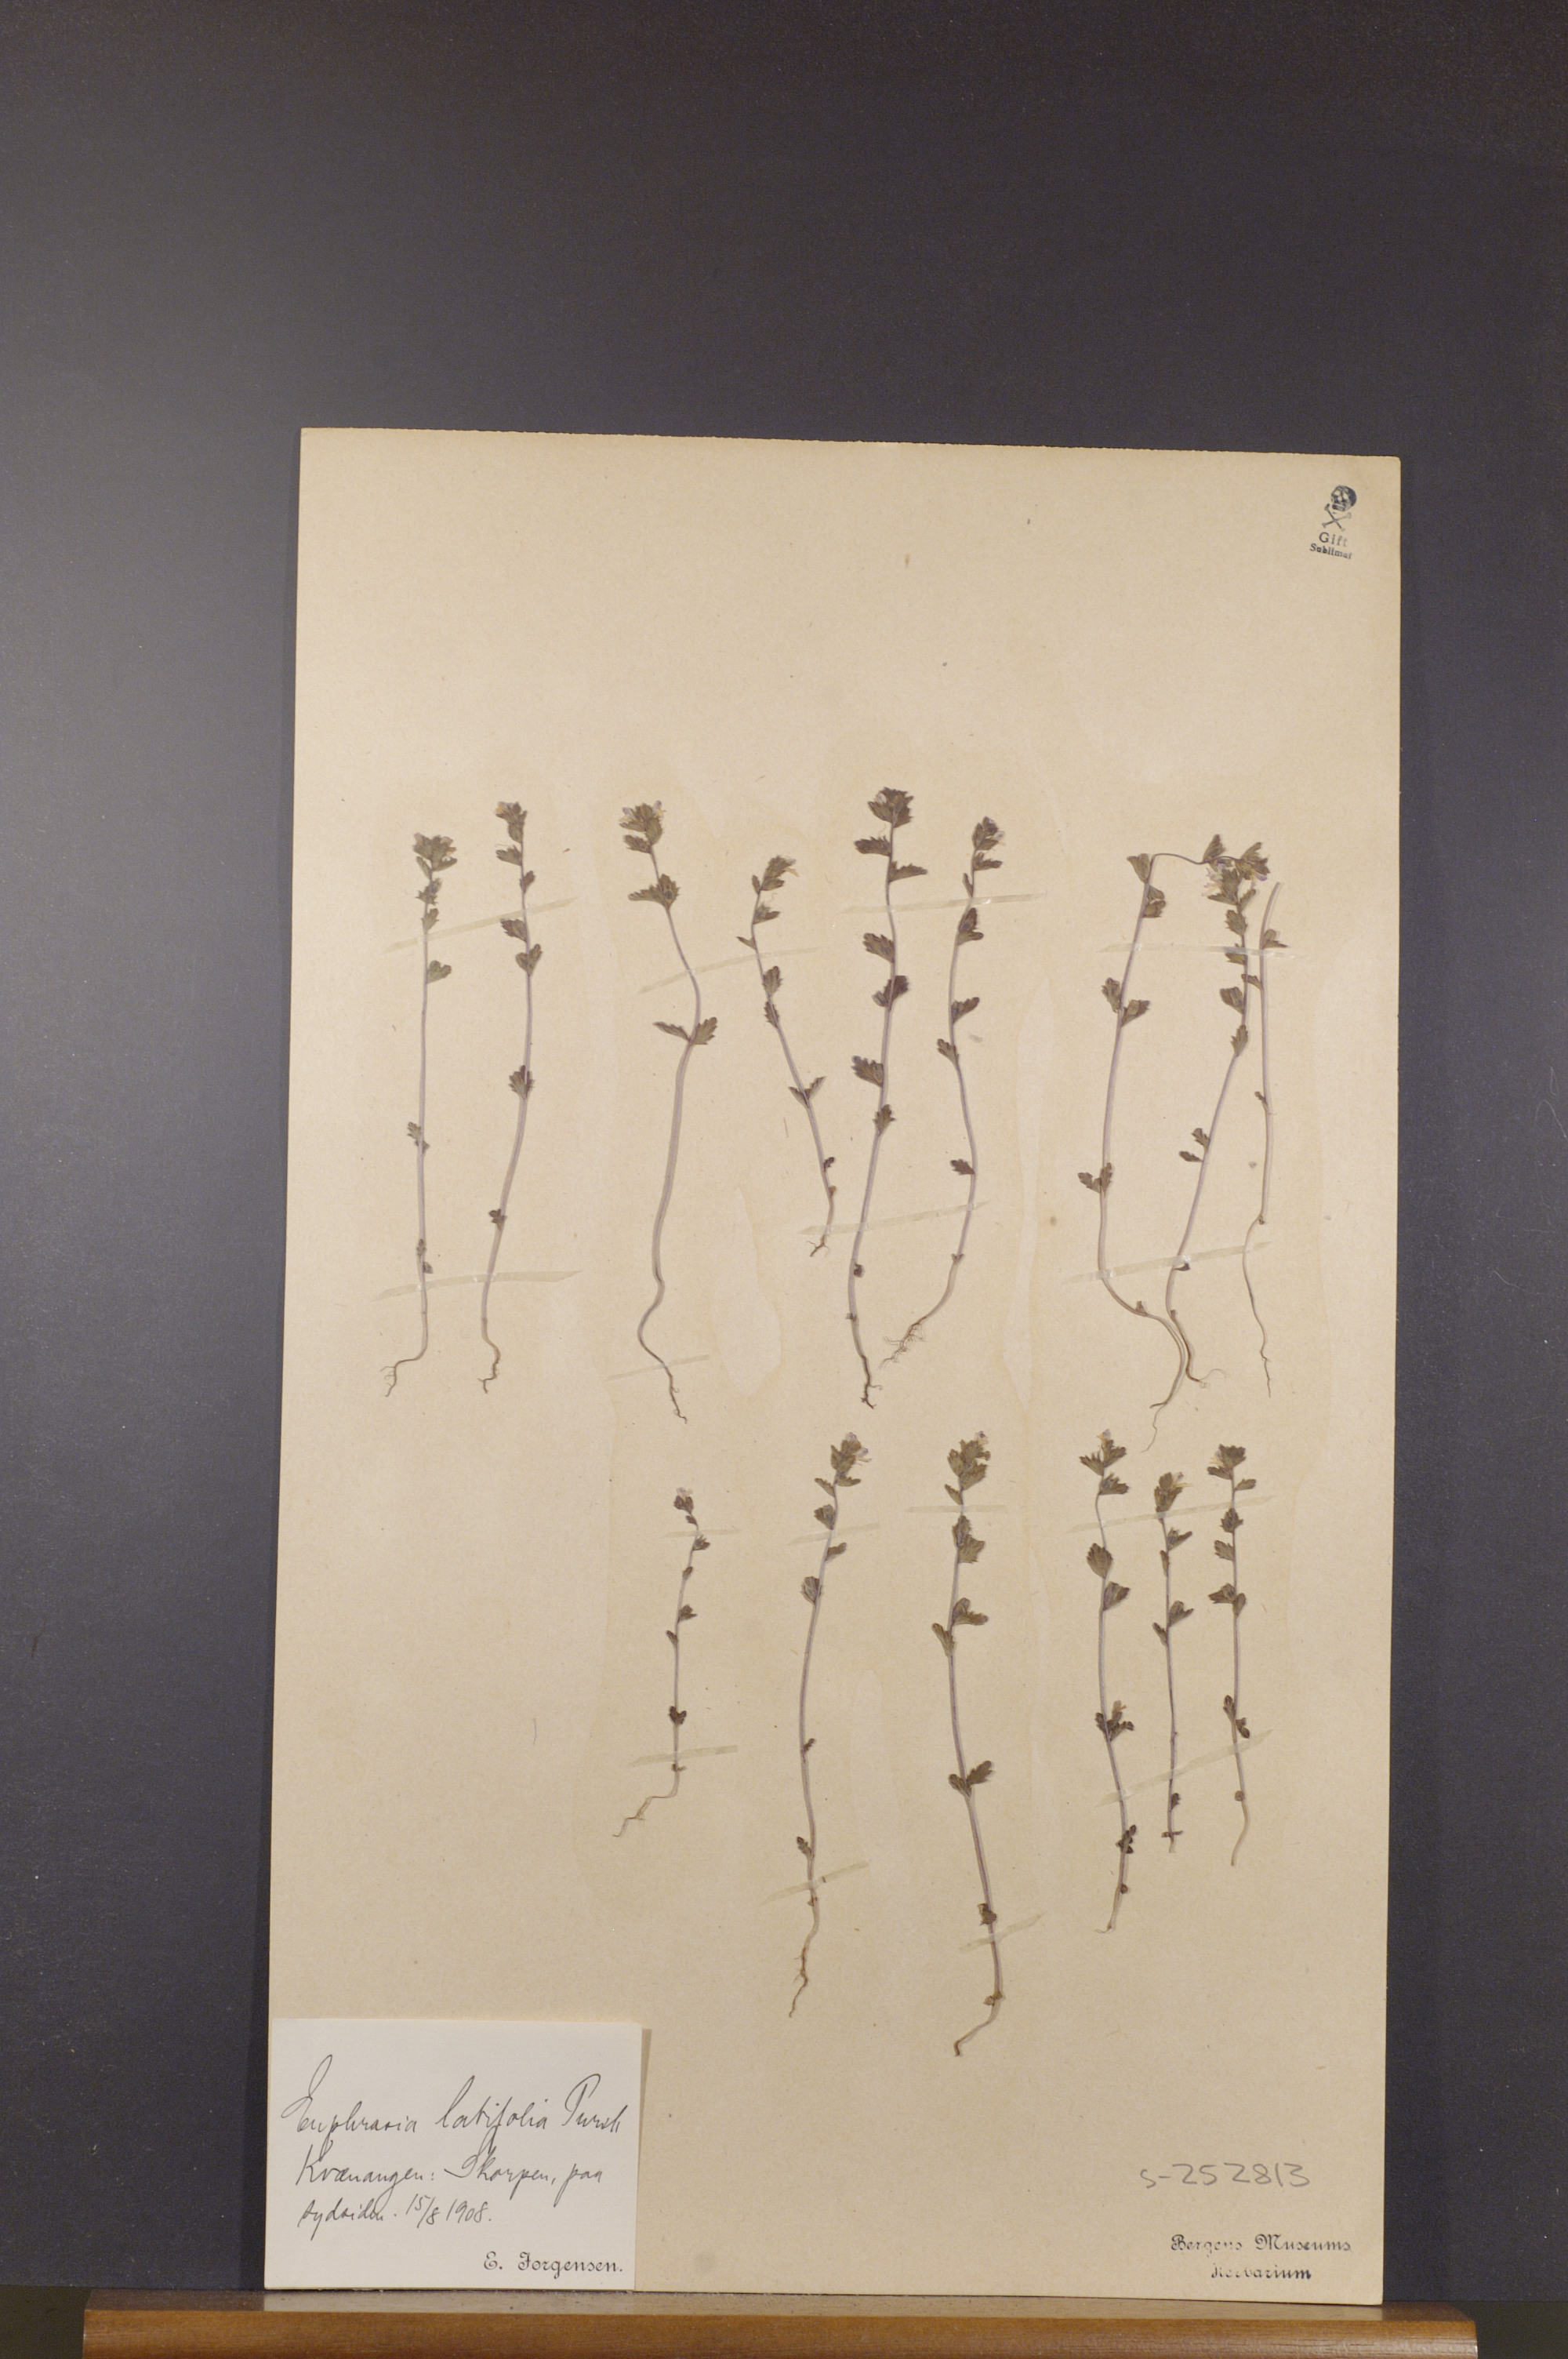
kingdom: Plantae
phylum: Tracheophyta
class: Magnoliopsida
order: Lamiales
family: Orobanchaceae
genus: Euphrasia
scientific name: Euphrasia wettsteinii
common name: Wettstein's eyebright
